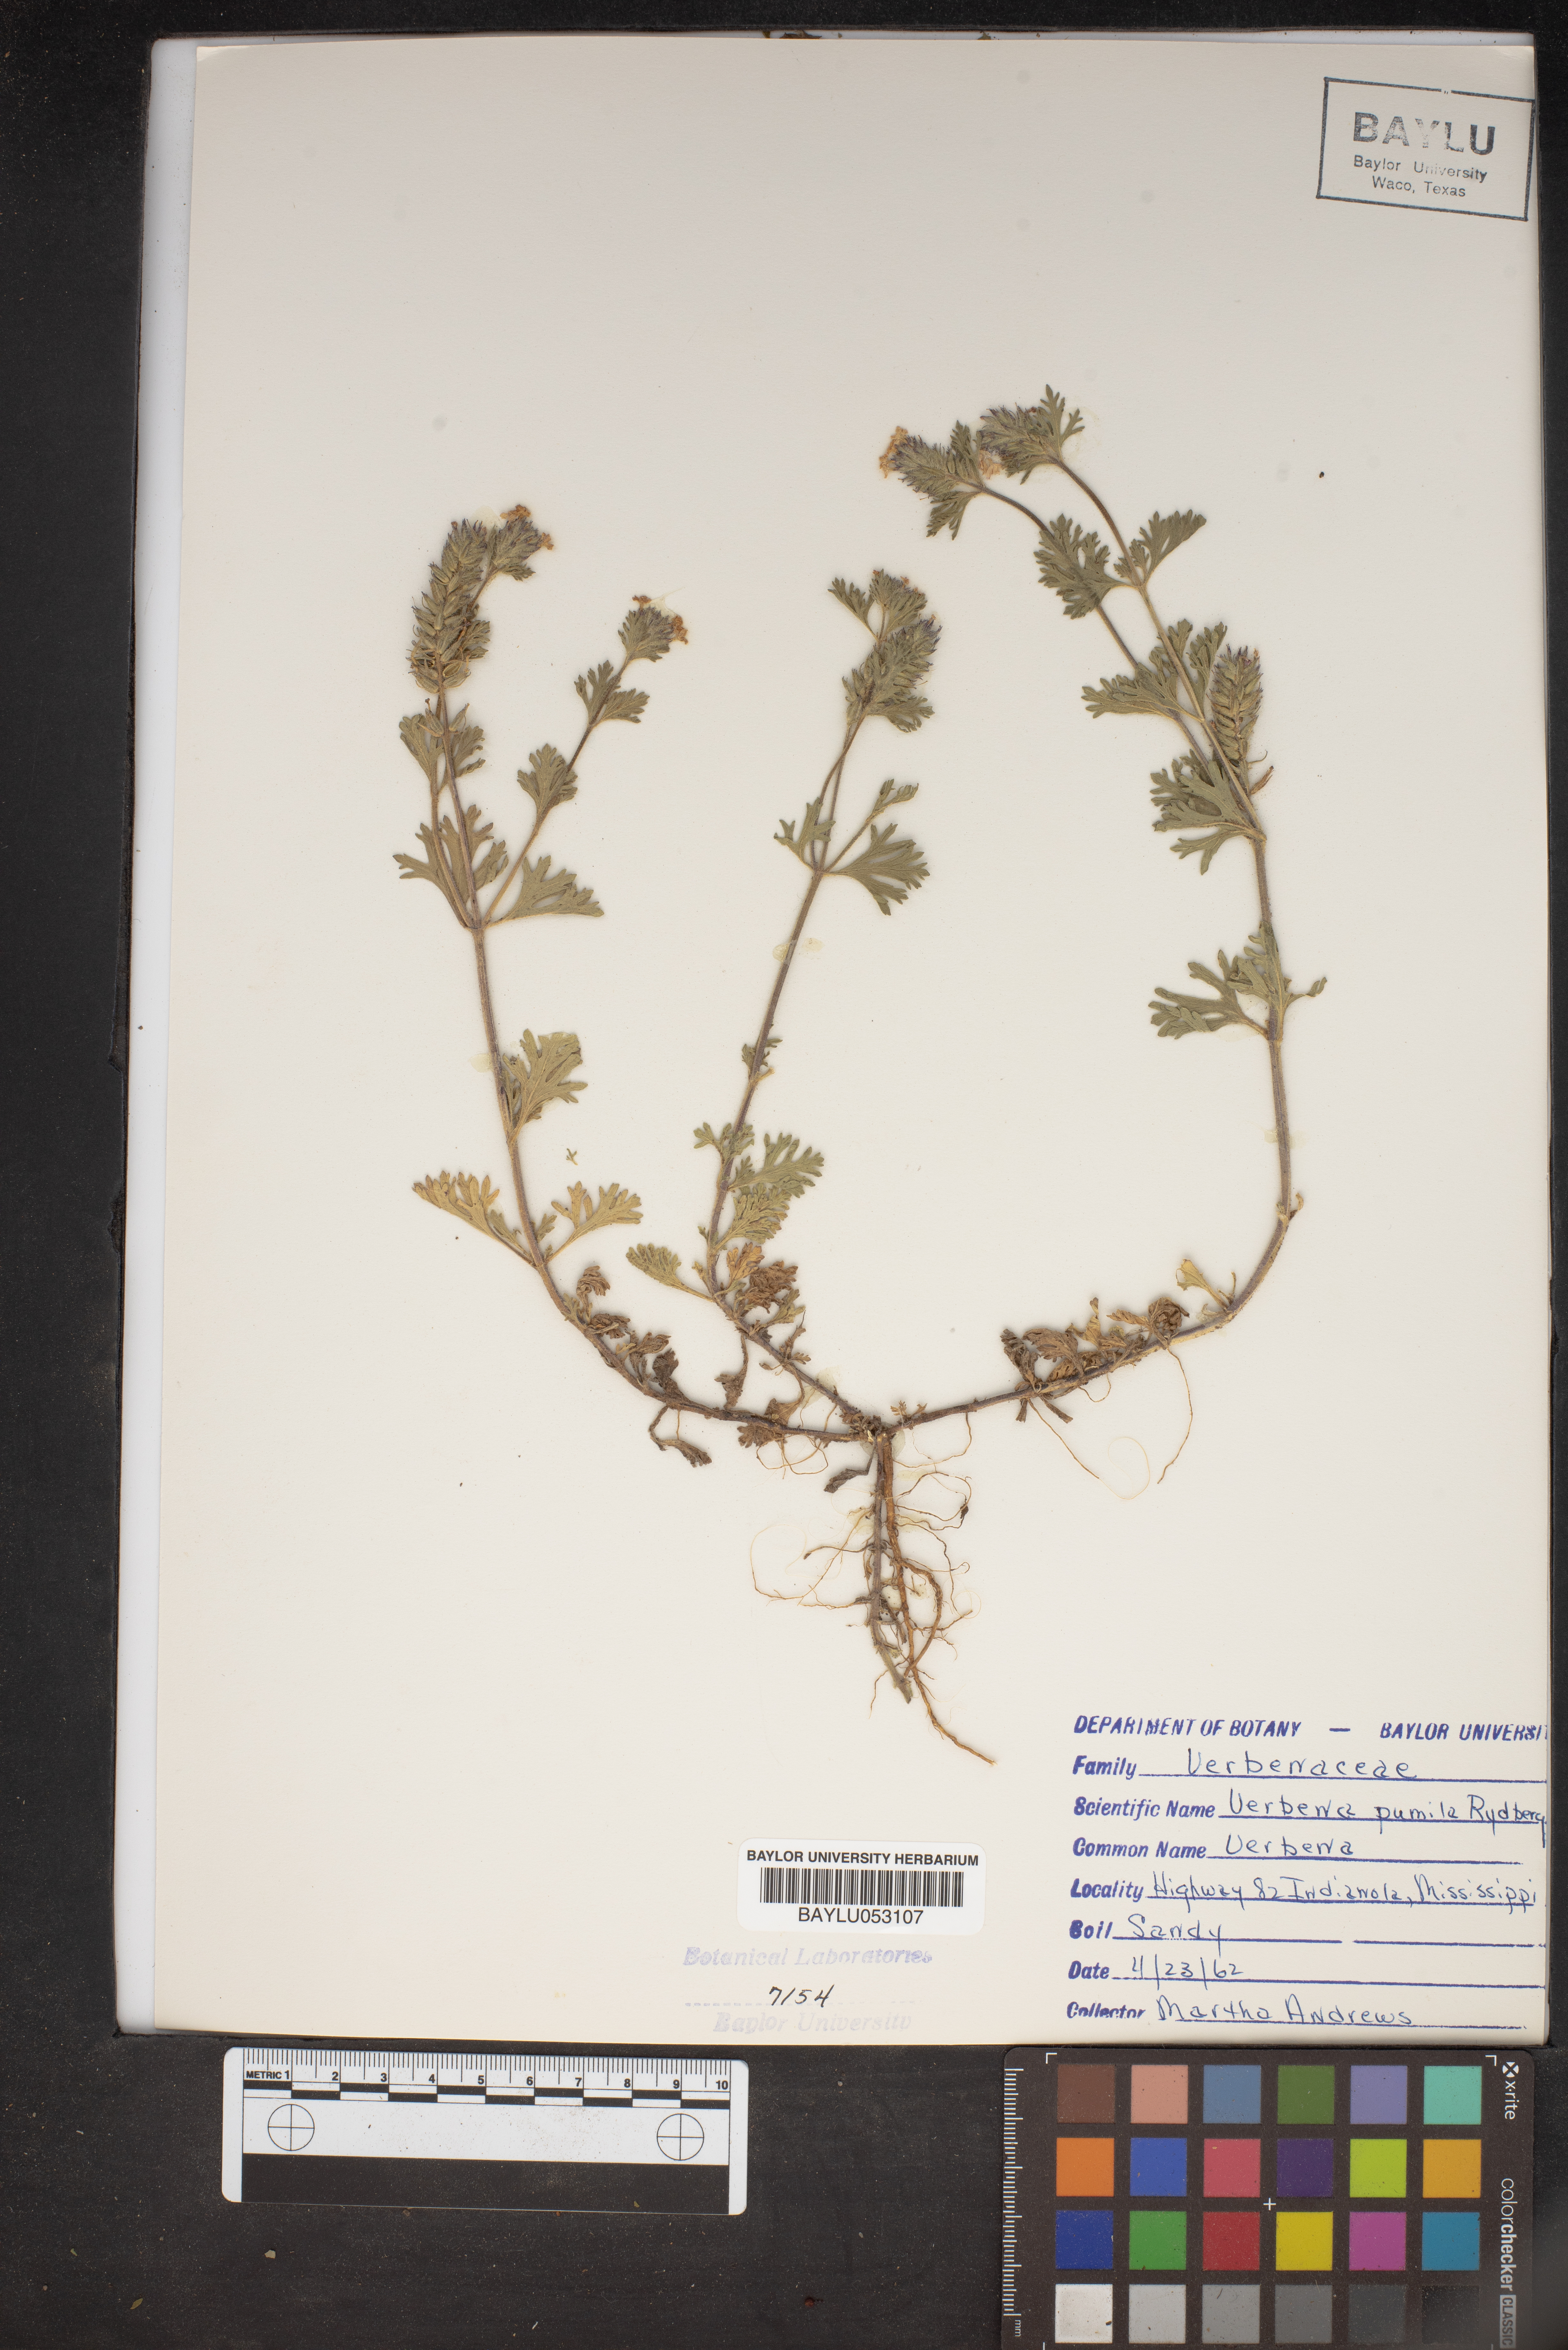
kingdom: Plantae
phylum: Tracheophyta
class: Magnoliopsida
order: Lamiales
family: Verbenaceae
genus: Verbena
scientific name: Verbena pumila
